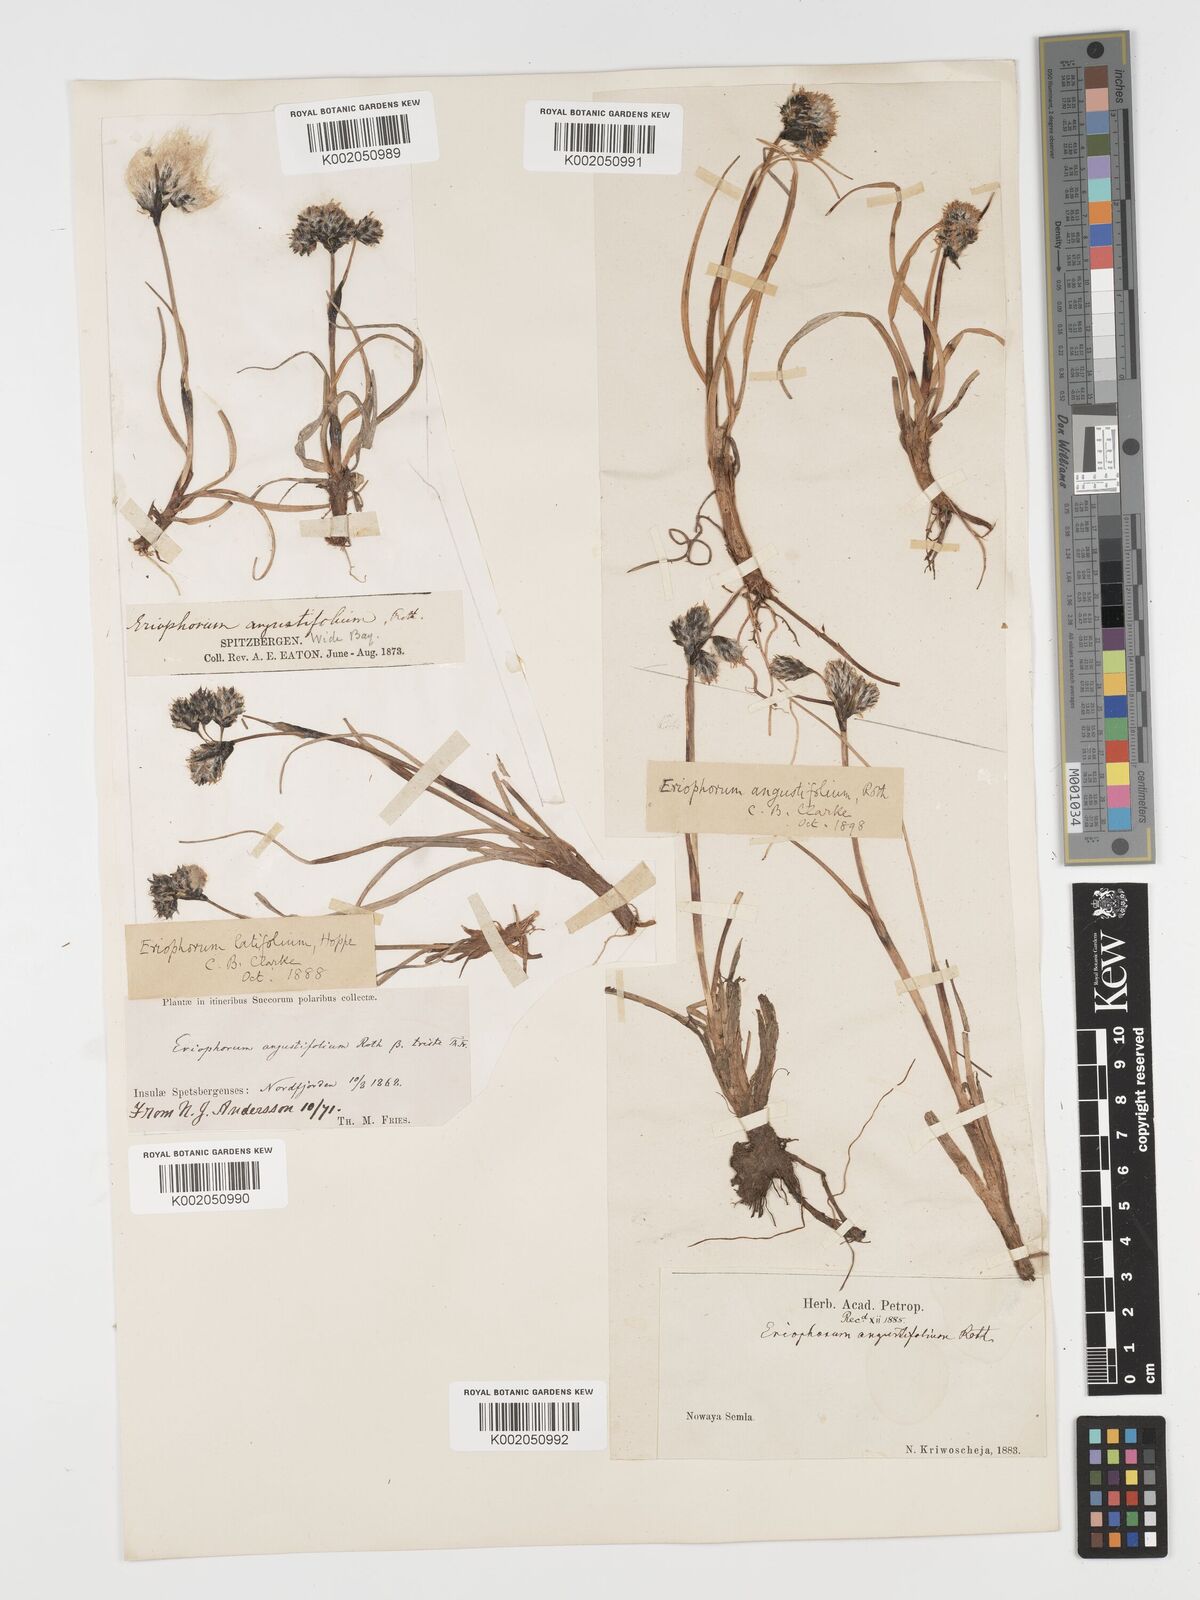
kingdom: Plantae
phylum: Tracheophyta
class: Liliopsida
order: Poales
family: Cyperaceae
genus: Eriophorum
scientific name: Eriophorum angustifolium
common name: Common cottongrass
